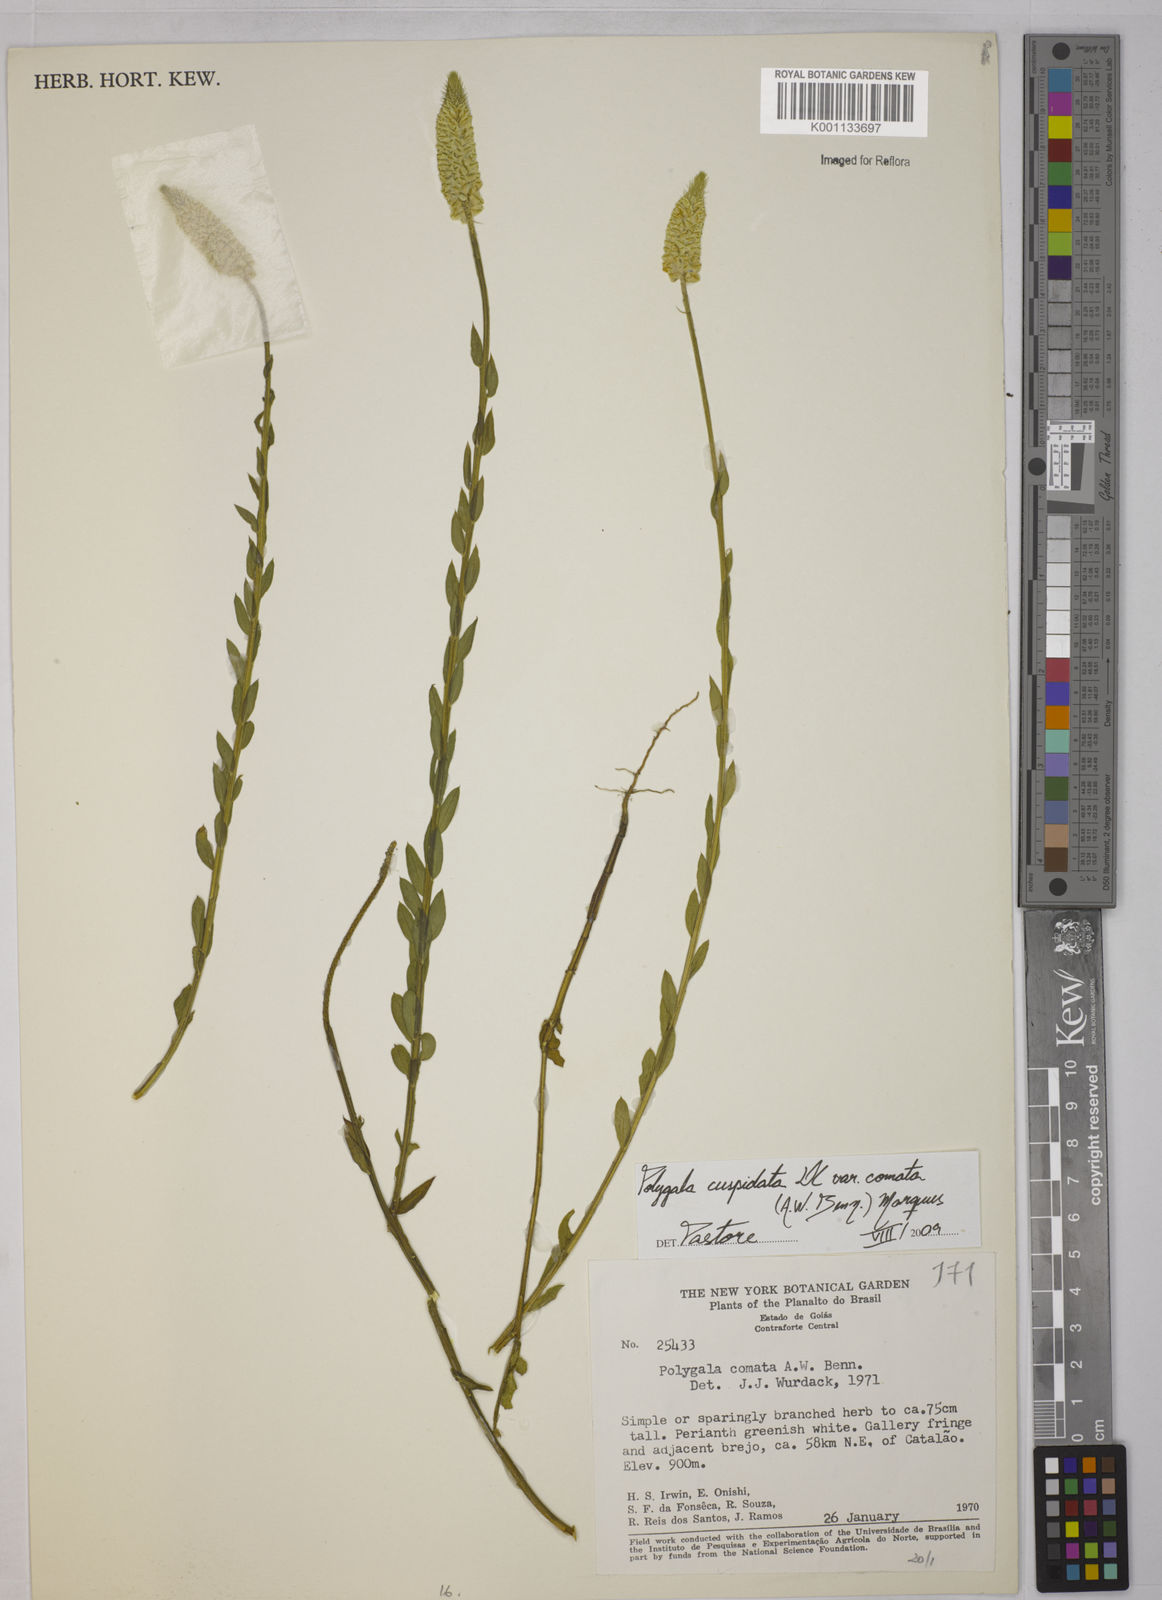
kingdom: Plantae
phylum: Tracheophyta
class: Magnoliopsida
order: Fabales
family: Polygalaceae
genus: Polygala
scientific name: Polygala cuspidata
